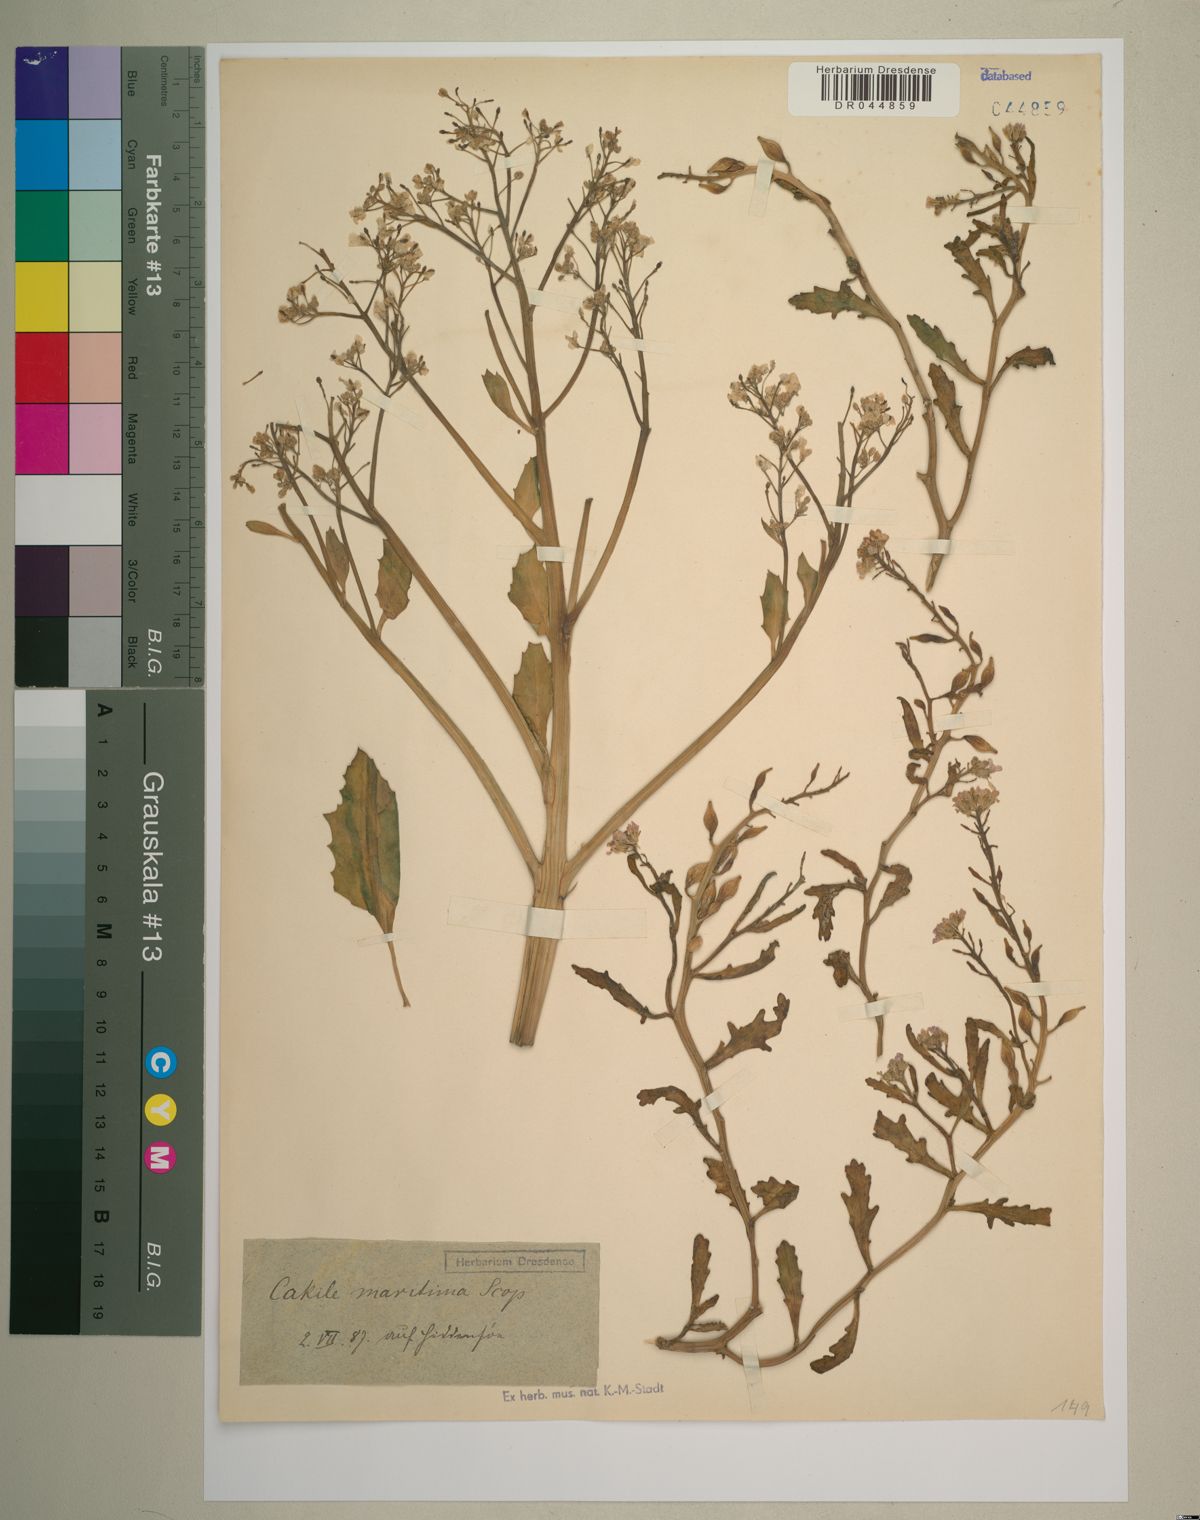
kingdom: Plantae
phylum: Tracheophyta
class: Magnoliopsida
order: Brassicales
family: Brassicaceae
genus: Cakile
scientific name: Cakile maritima
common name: Sea rocket
